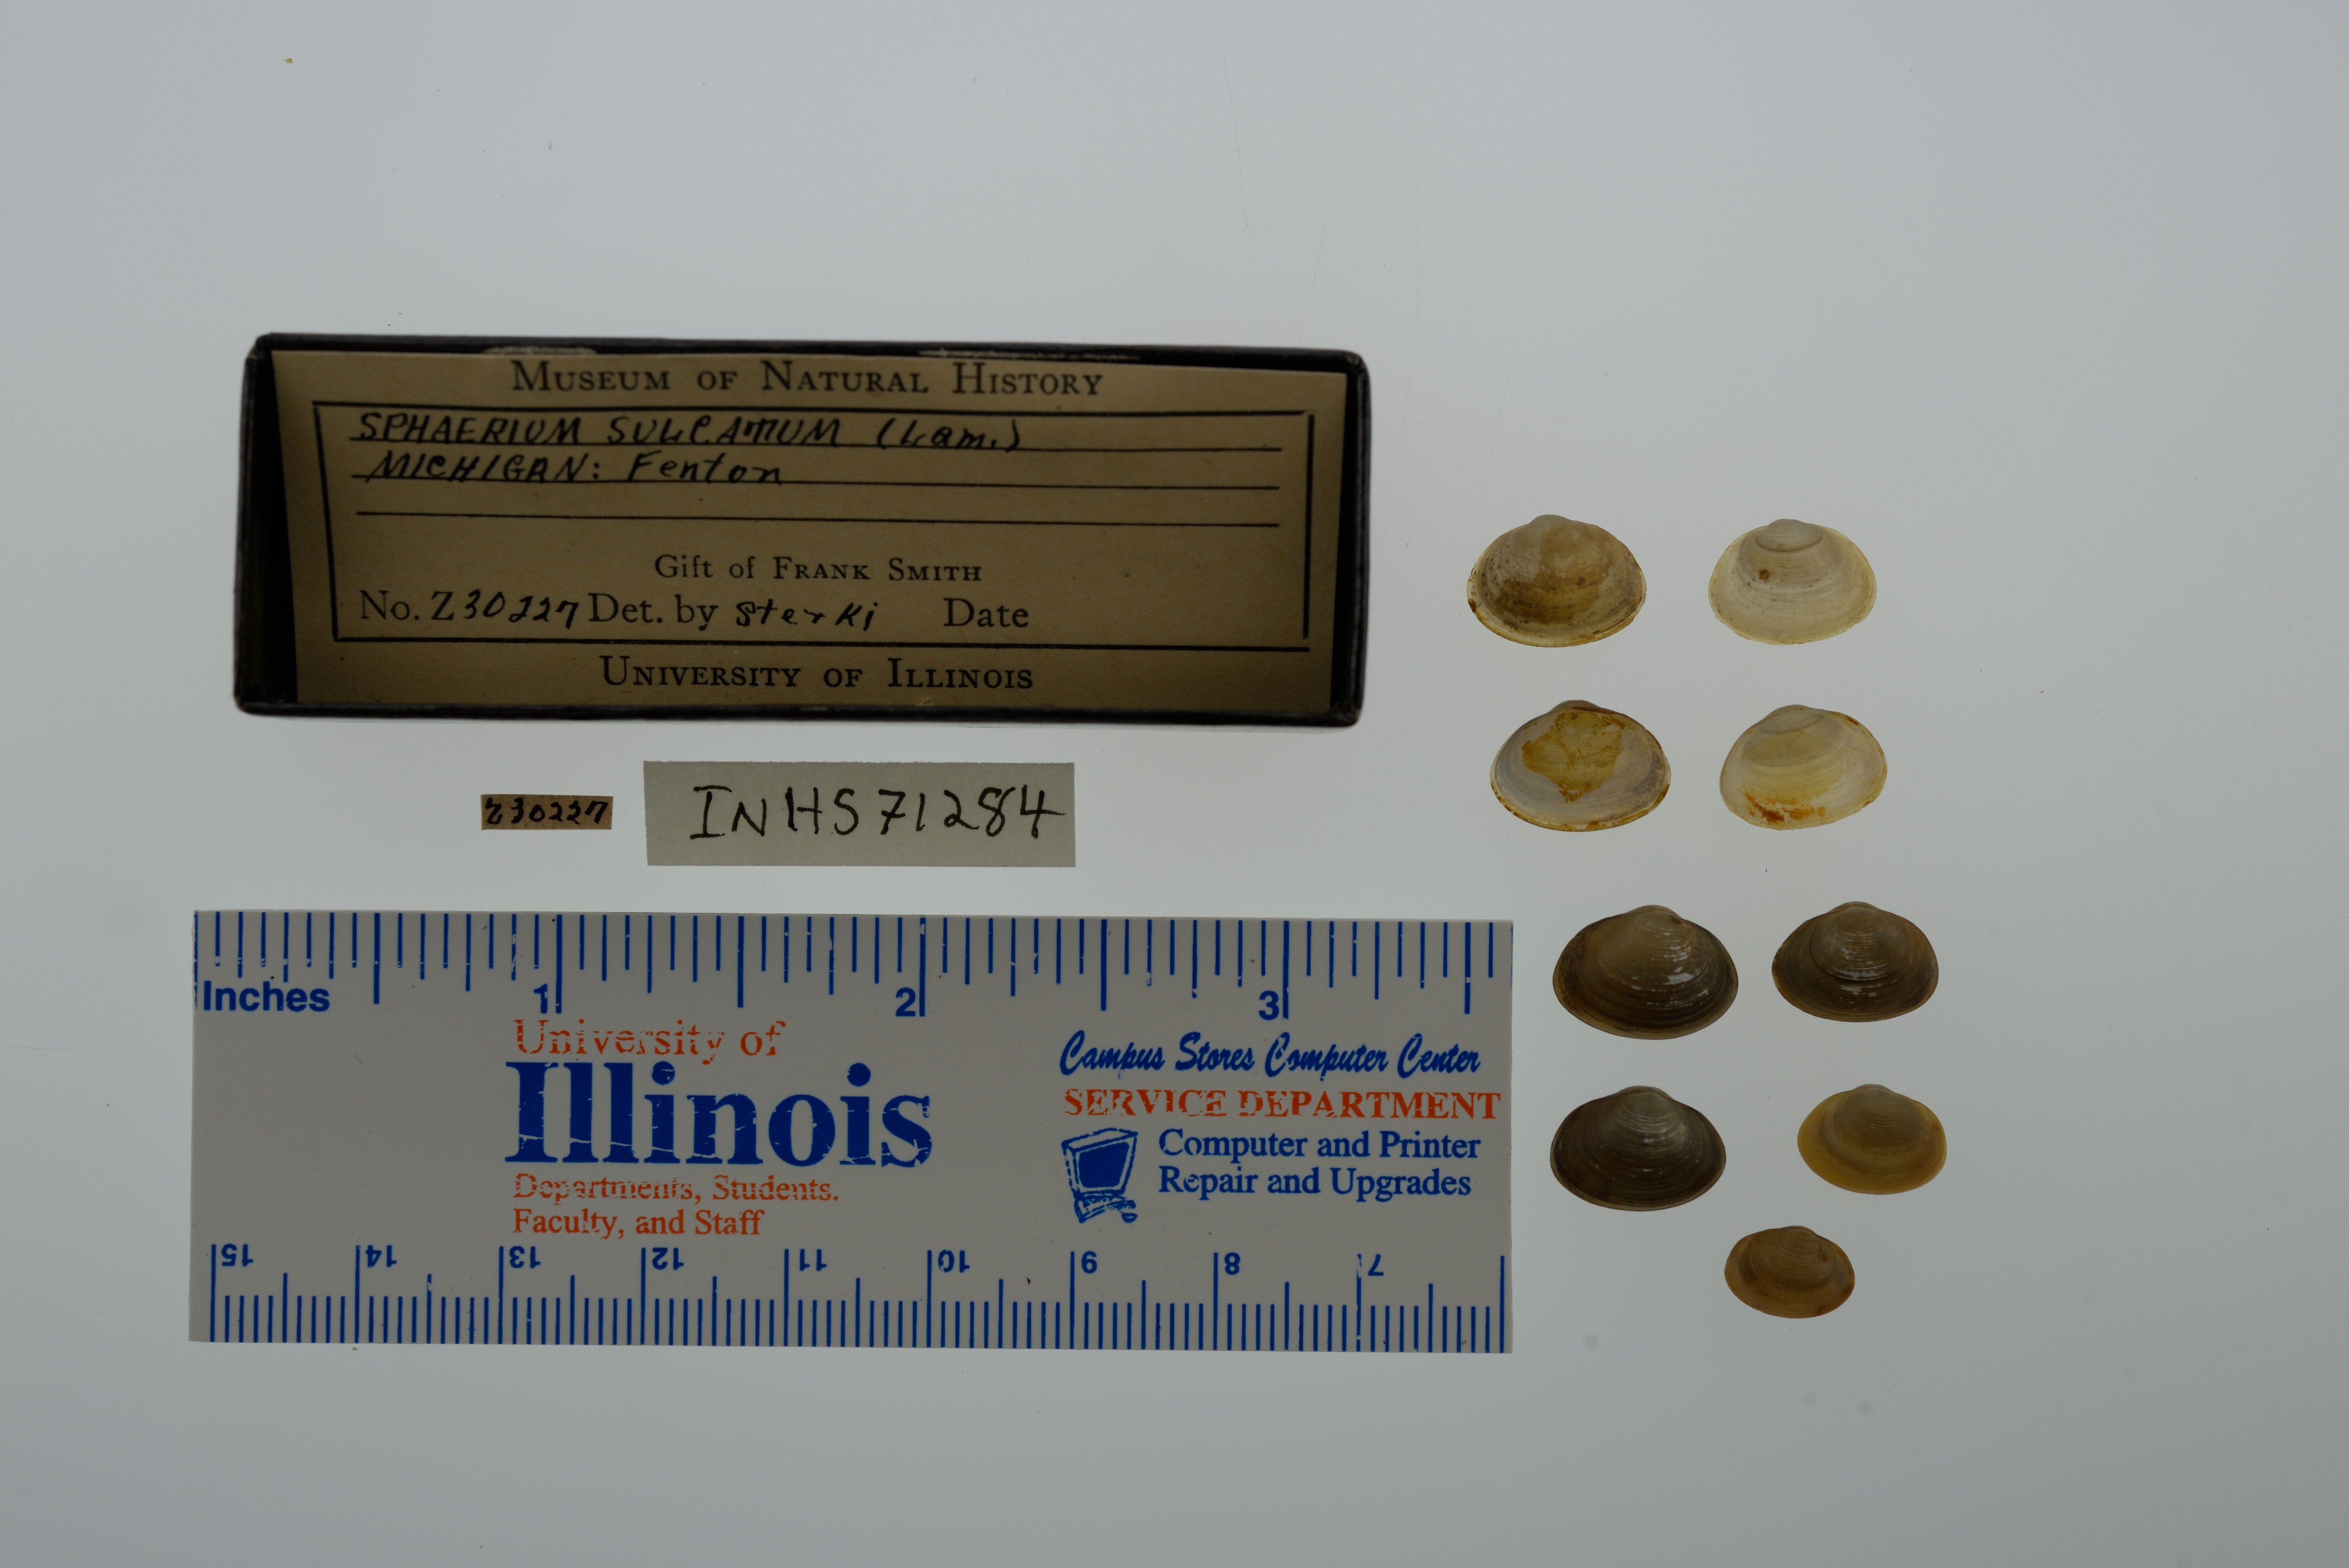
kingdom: Animalia
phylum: Mollusca
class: Bivalvia
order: Sphaeriida
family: Sphaeriidae
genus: Sphaerium
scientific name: Sphaerium simile
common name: Grooved fingernailclam
